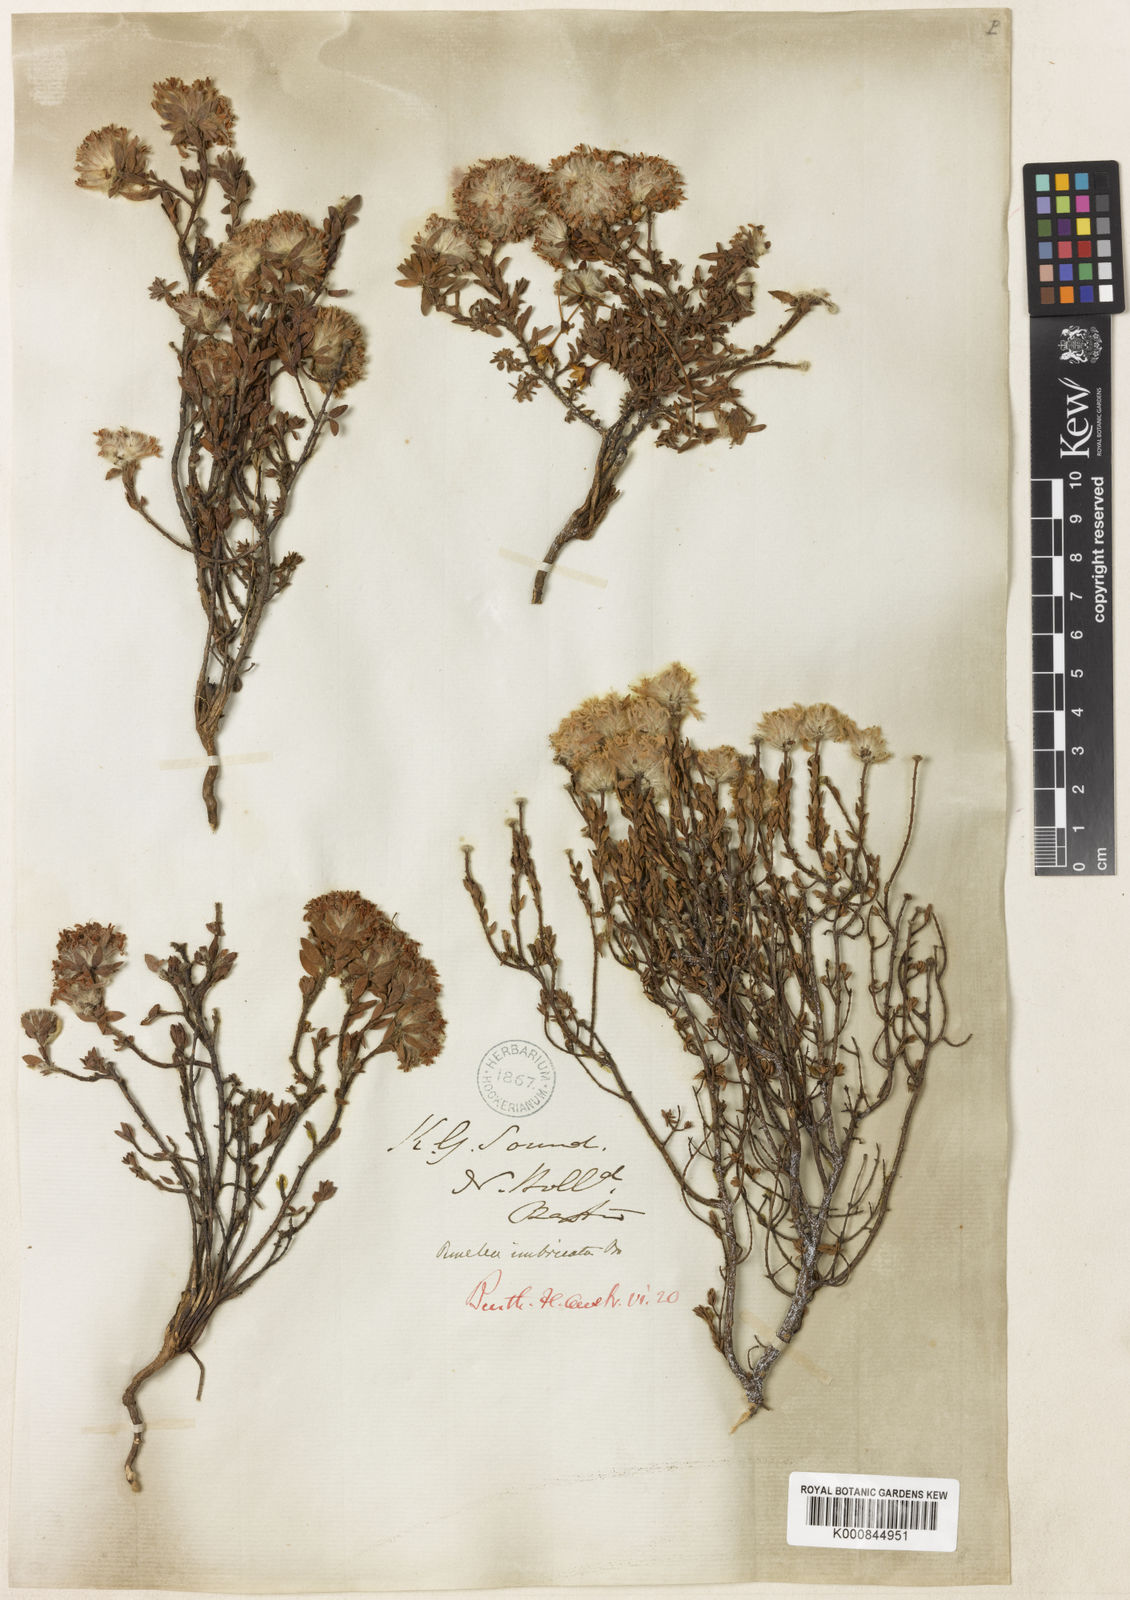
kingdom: Plantae
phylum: Tracheophyta
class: Magnoliopsida
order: Malvales
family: Thymelaeaceae
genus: Pimelea
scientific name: Pimelea imbricata
